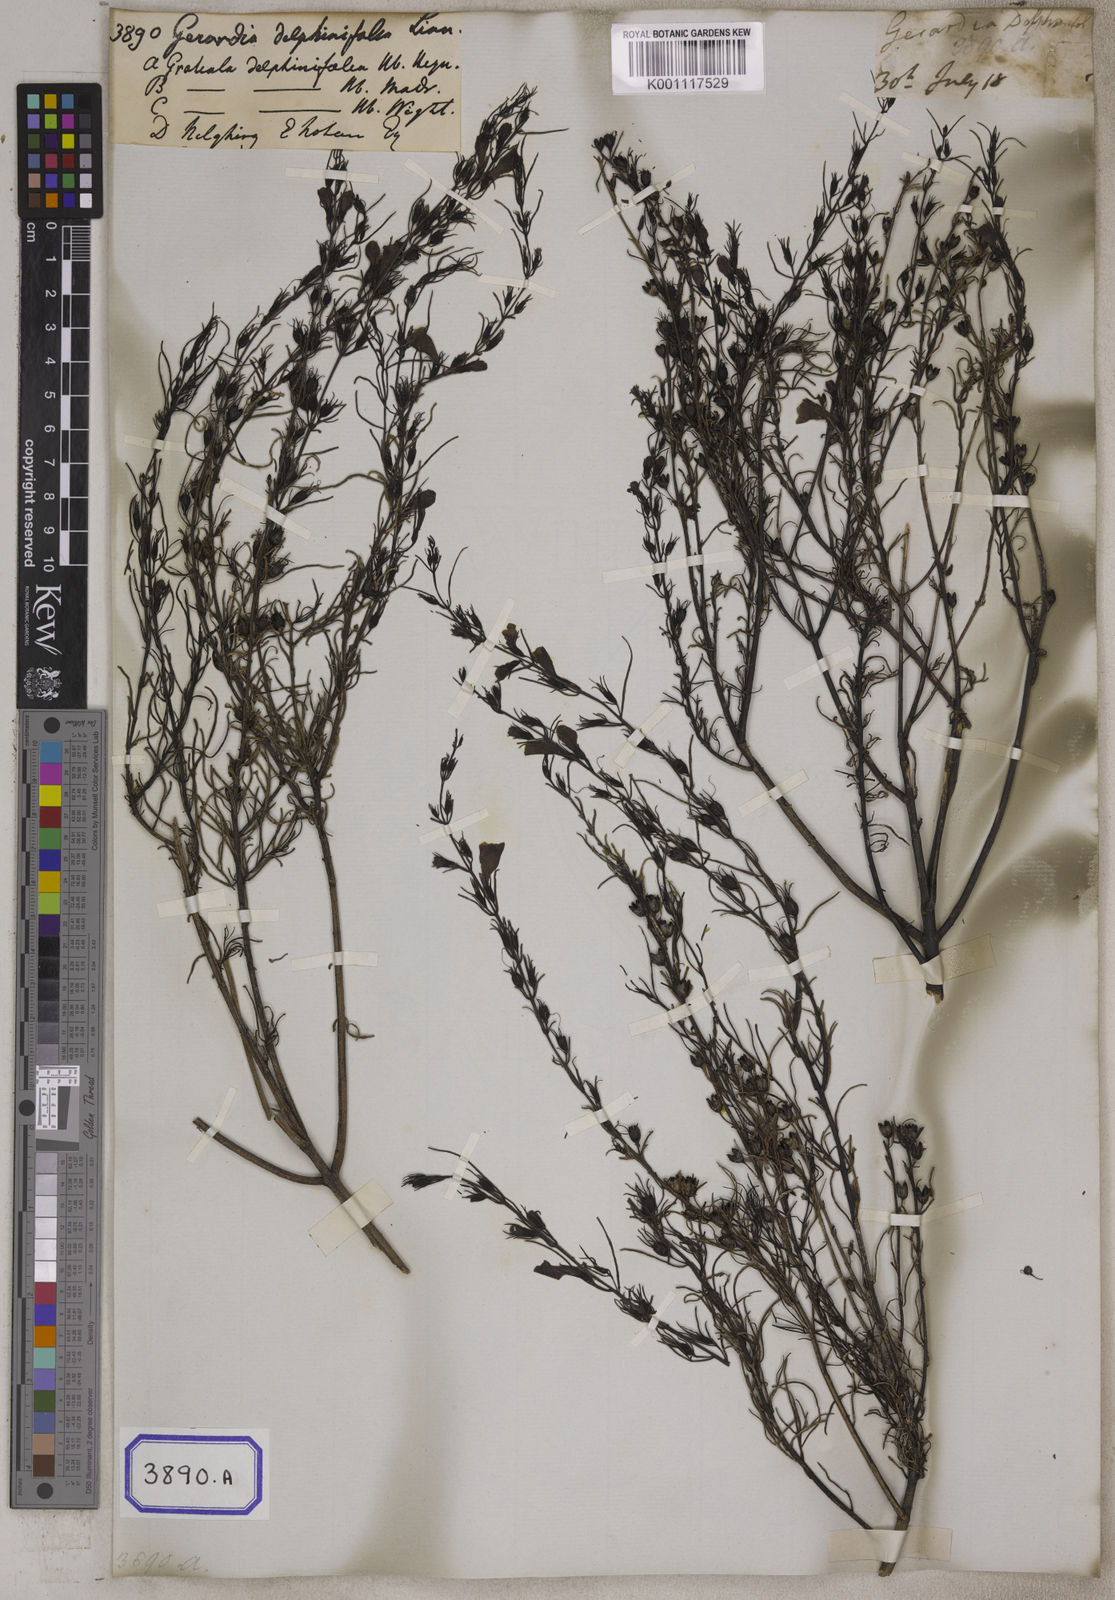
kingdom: Plantae
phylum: Tracheophyta
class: Magnoliopsida
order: Lamiales
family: Orobanchaceae
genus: Parasopubia
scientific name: Parasopubia delphiniifolia
